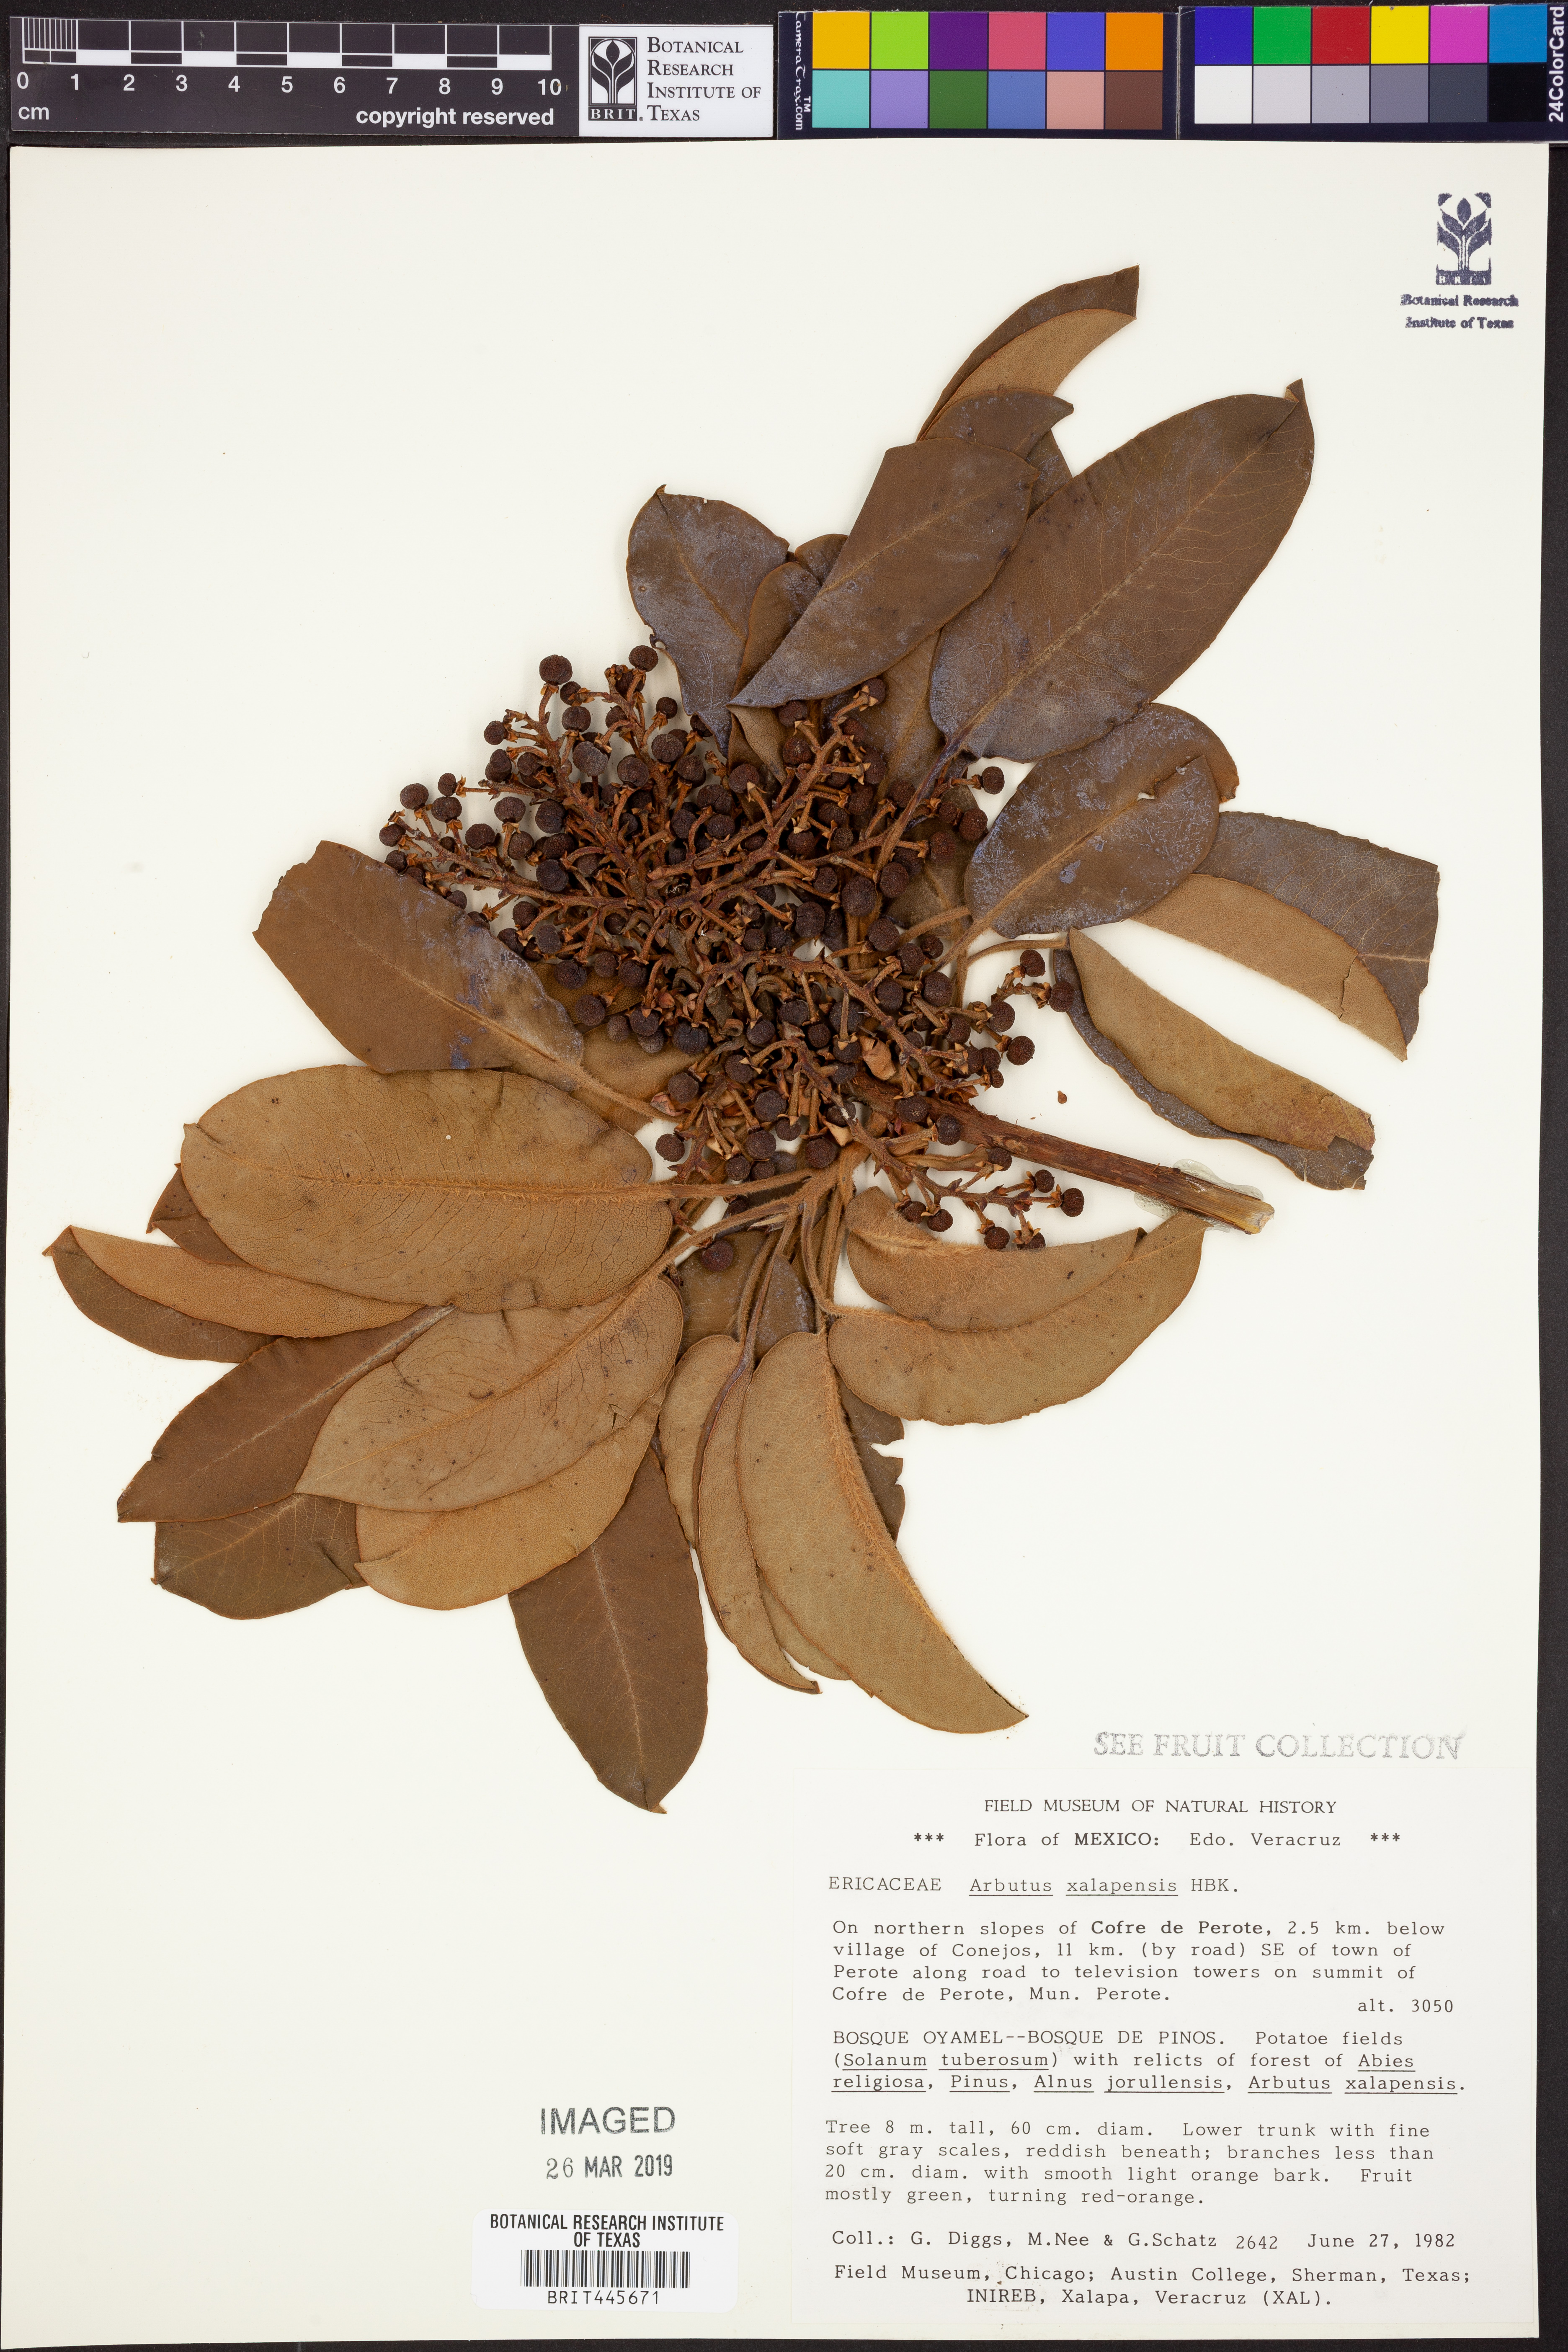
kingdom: Plantae
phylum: Tracheophyta
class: Magnoliopsida
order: Ericales
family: Ericaceae
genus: Arbutus
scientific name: Arbutus xalapensis
